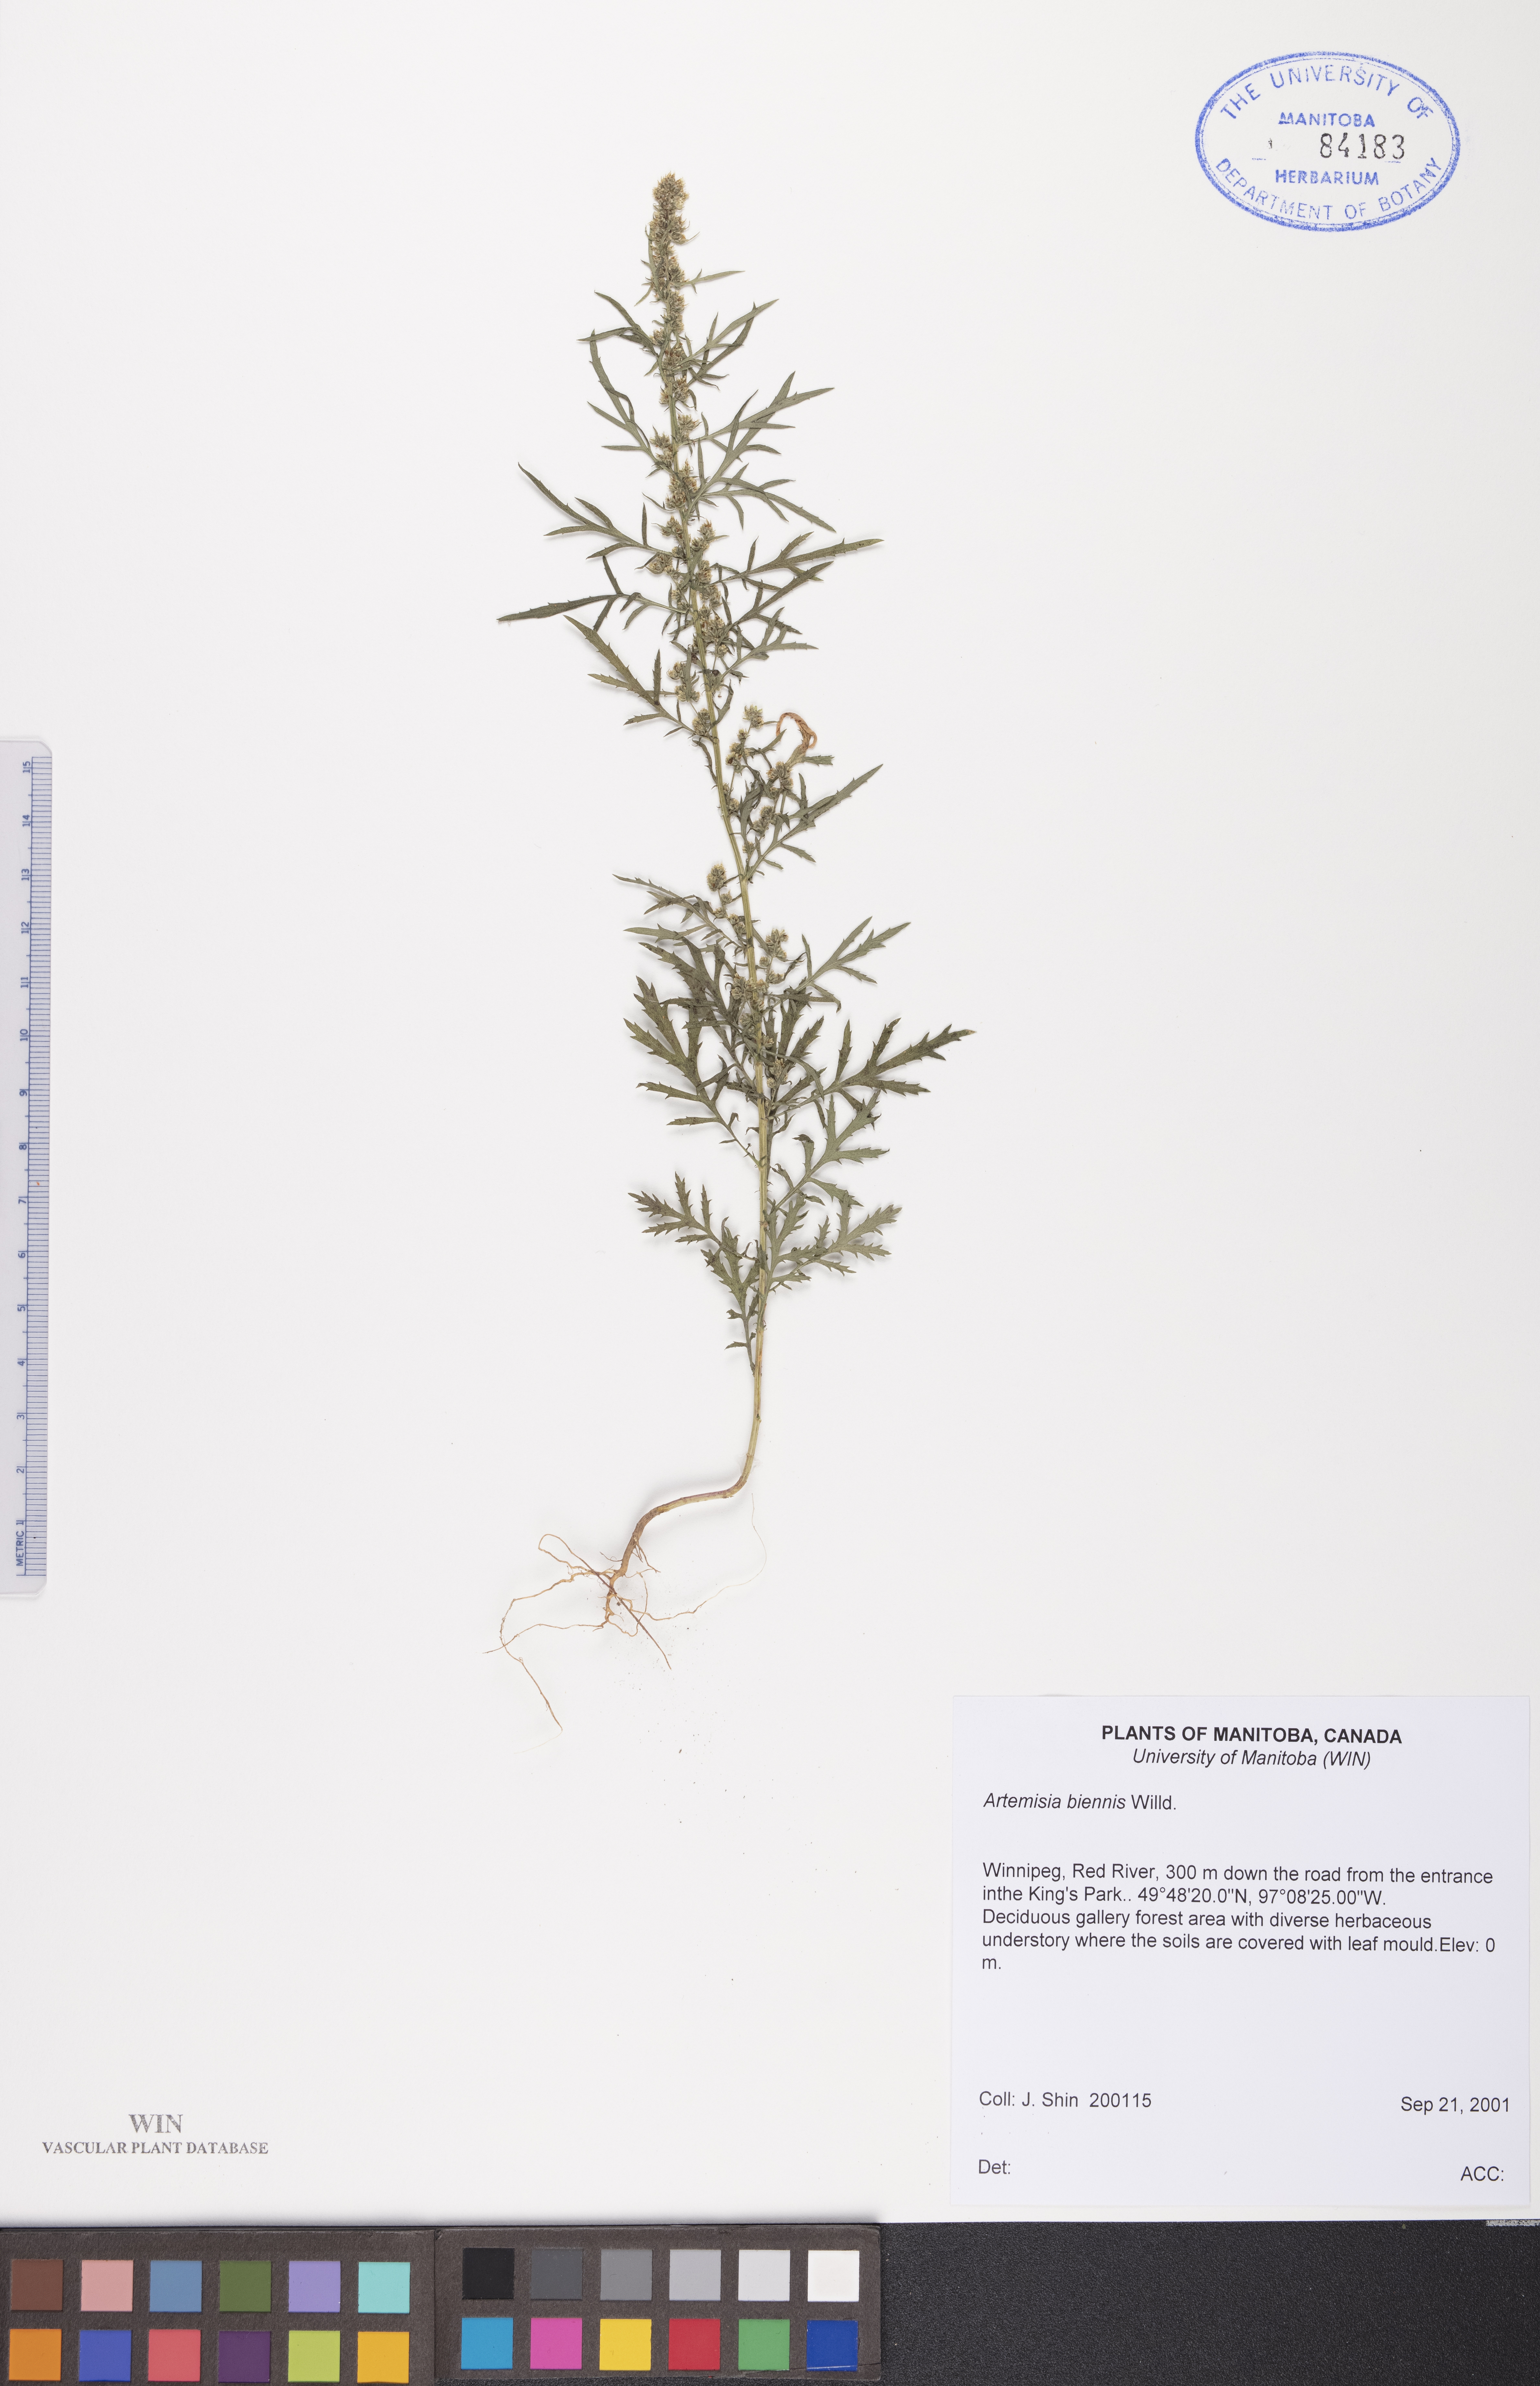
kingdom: Plantae
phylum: Tracheophyta
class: Magnoliopsida
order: Asterales
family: Asteraceae
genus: Artemisia
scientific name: Artemisia biennis
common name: Biennial wormwood
